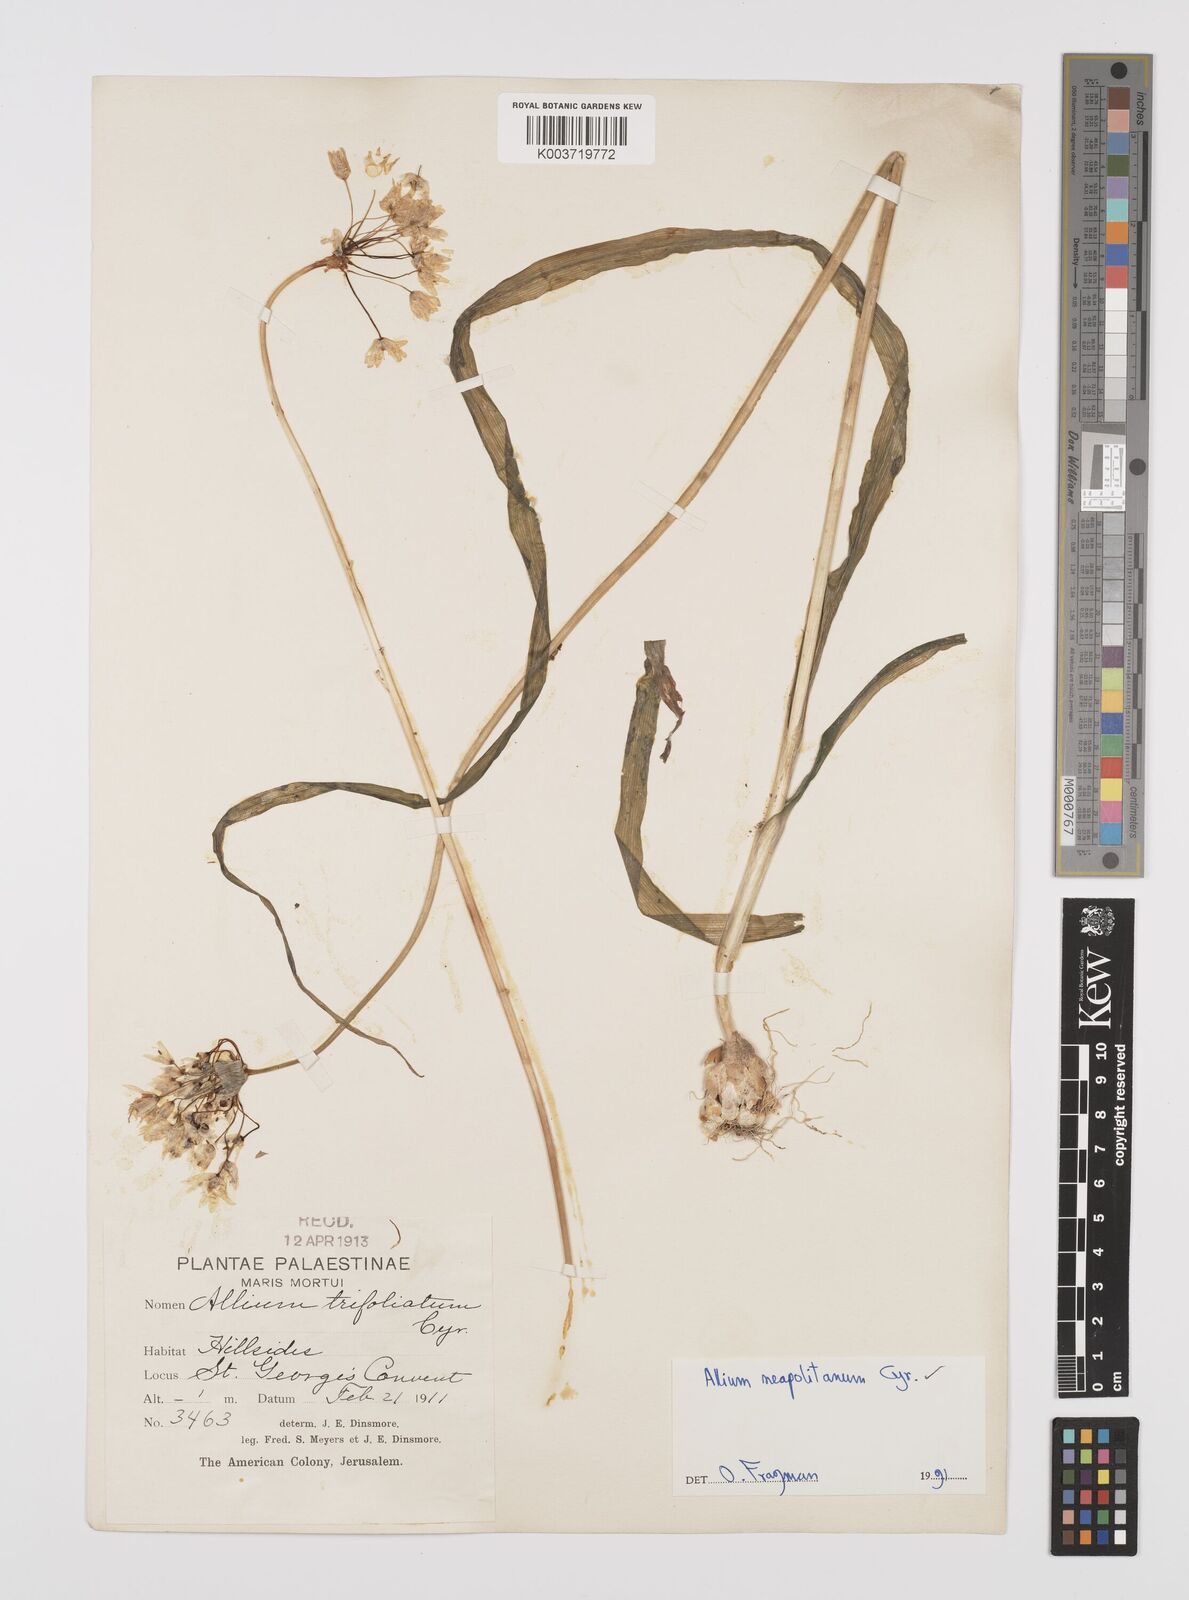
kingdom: Plantae
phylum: Tracheophyta
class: Liliopsida
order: Asparagales
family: Amaryllidaceae
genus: Allium
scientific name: Allium neapolitanum
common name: Neapolitan garlic
